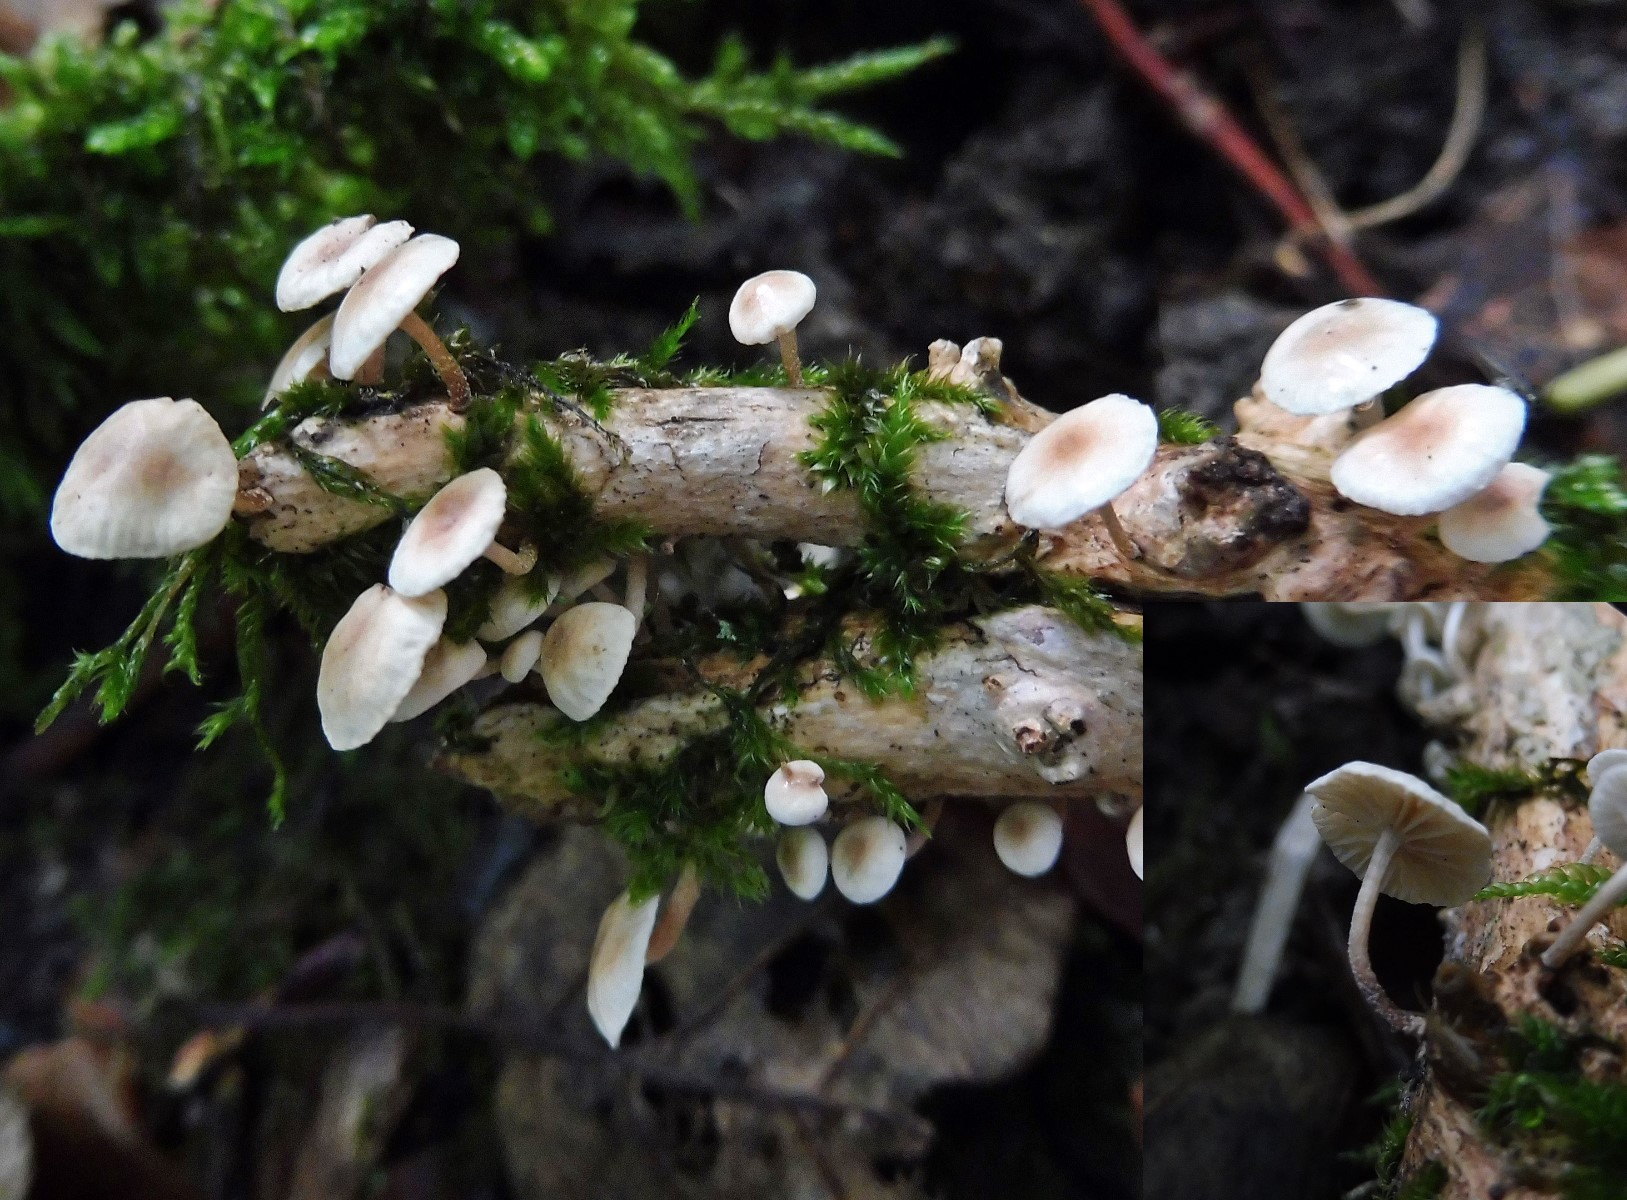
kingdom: Fungi
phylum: Basidiomycota
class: Agaricomycetes
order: Agaricales
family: Omphalotaceae
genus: Collybiopsis
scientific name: Collybiopsis ramealis
